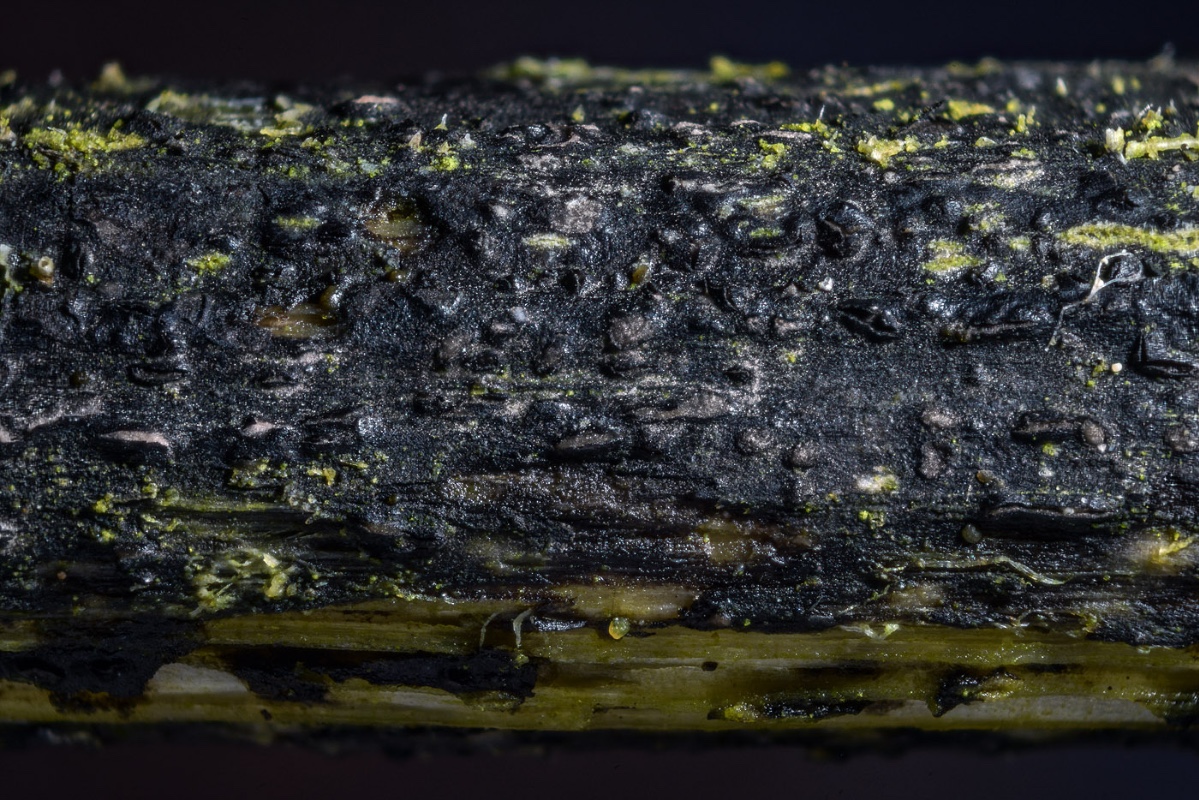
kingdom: Fungi
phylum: Ascomycota
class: Sordariomycetes
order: Diaporthales
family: Diaporthaceae
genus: Diaporthopsis
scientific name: Diaporthopsis urticae
